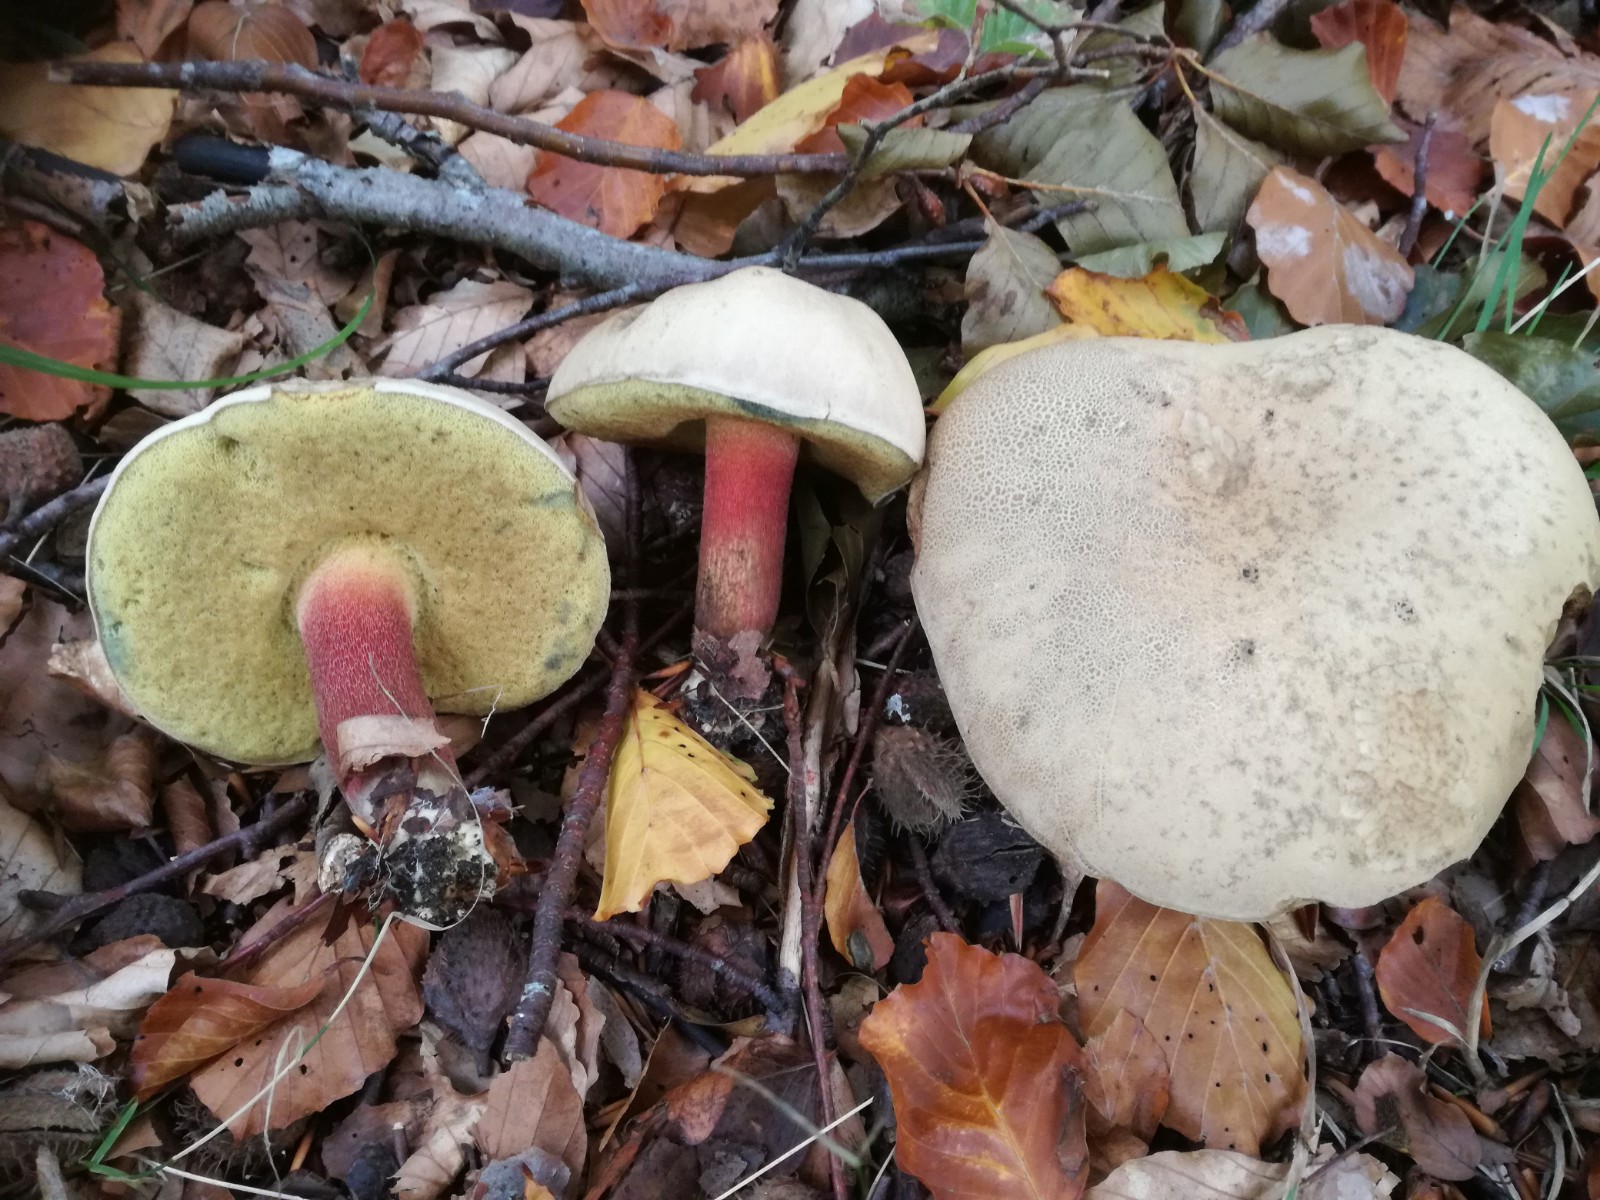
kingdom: Fungi
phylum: Basidiomycota
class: Agaricomycetes
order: Boletales
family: Boletaceae
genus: Caloboletus
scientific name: Caloboletus calopus
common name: skønfodet rørhat
